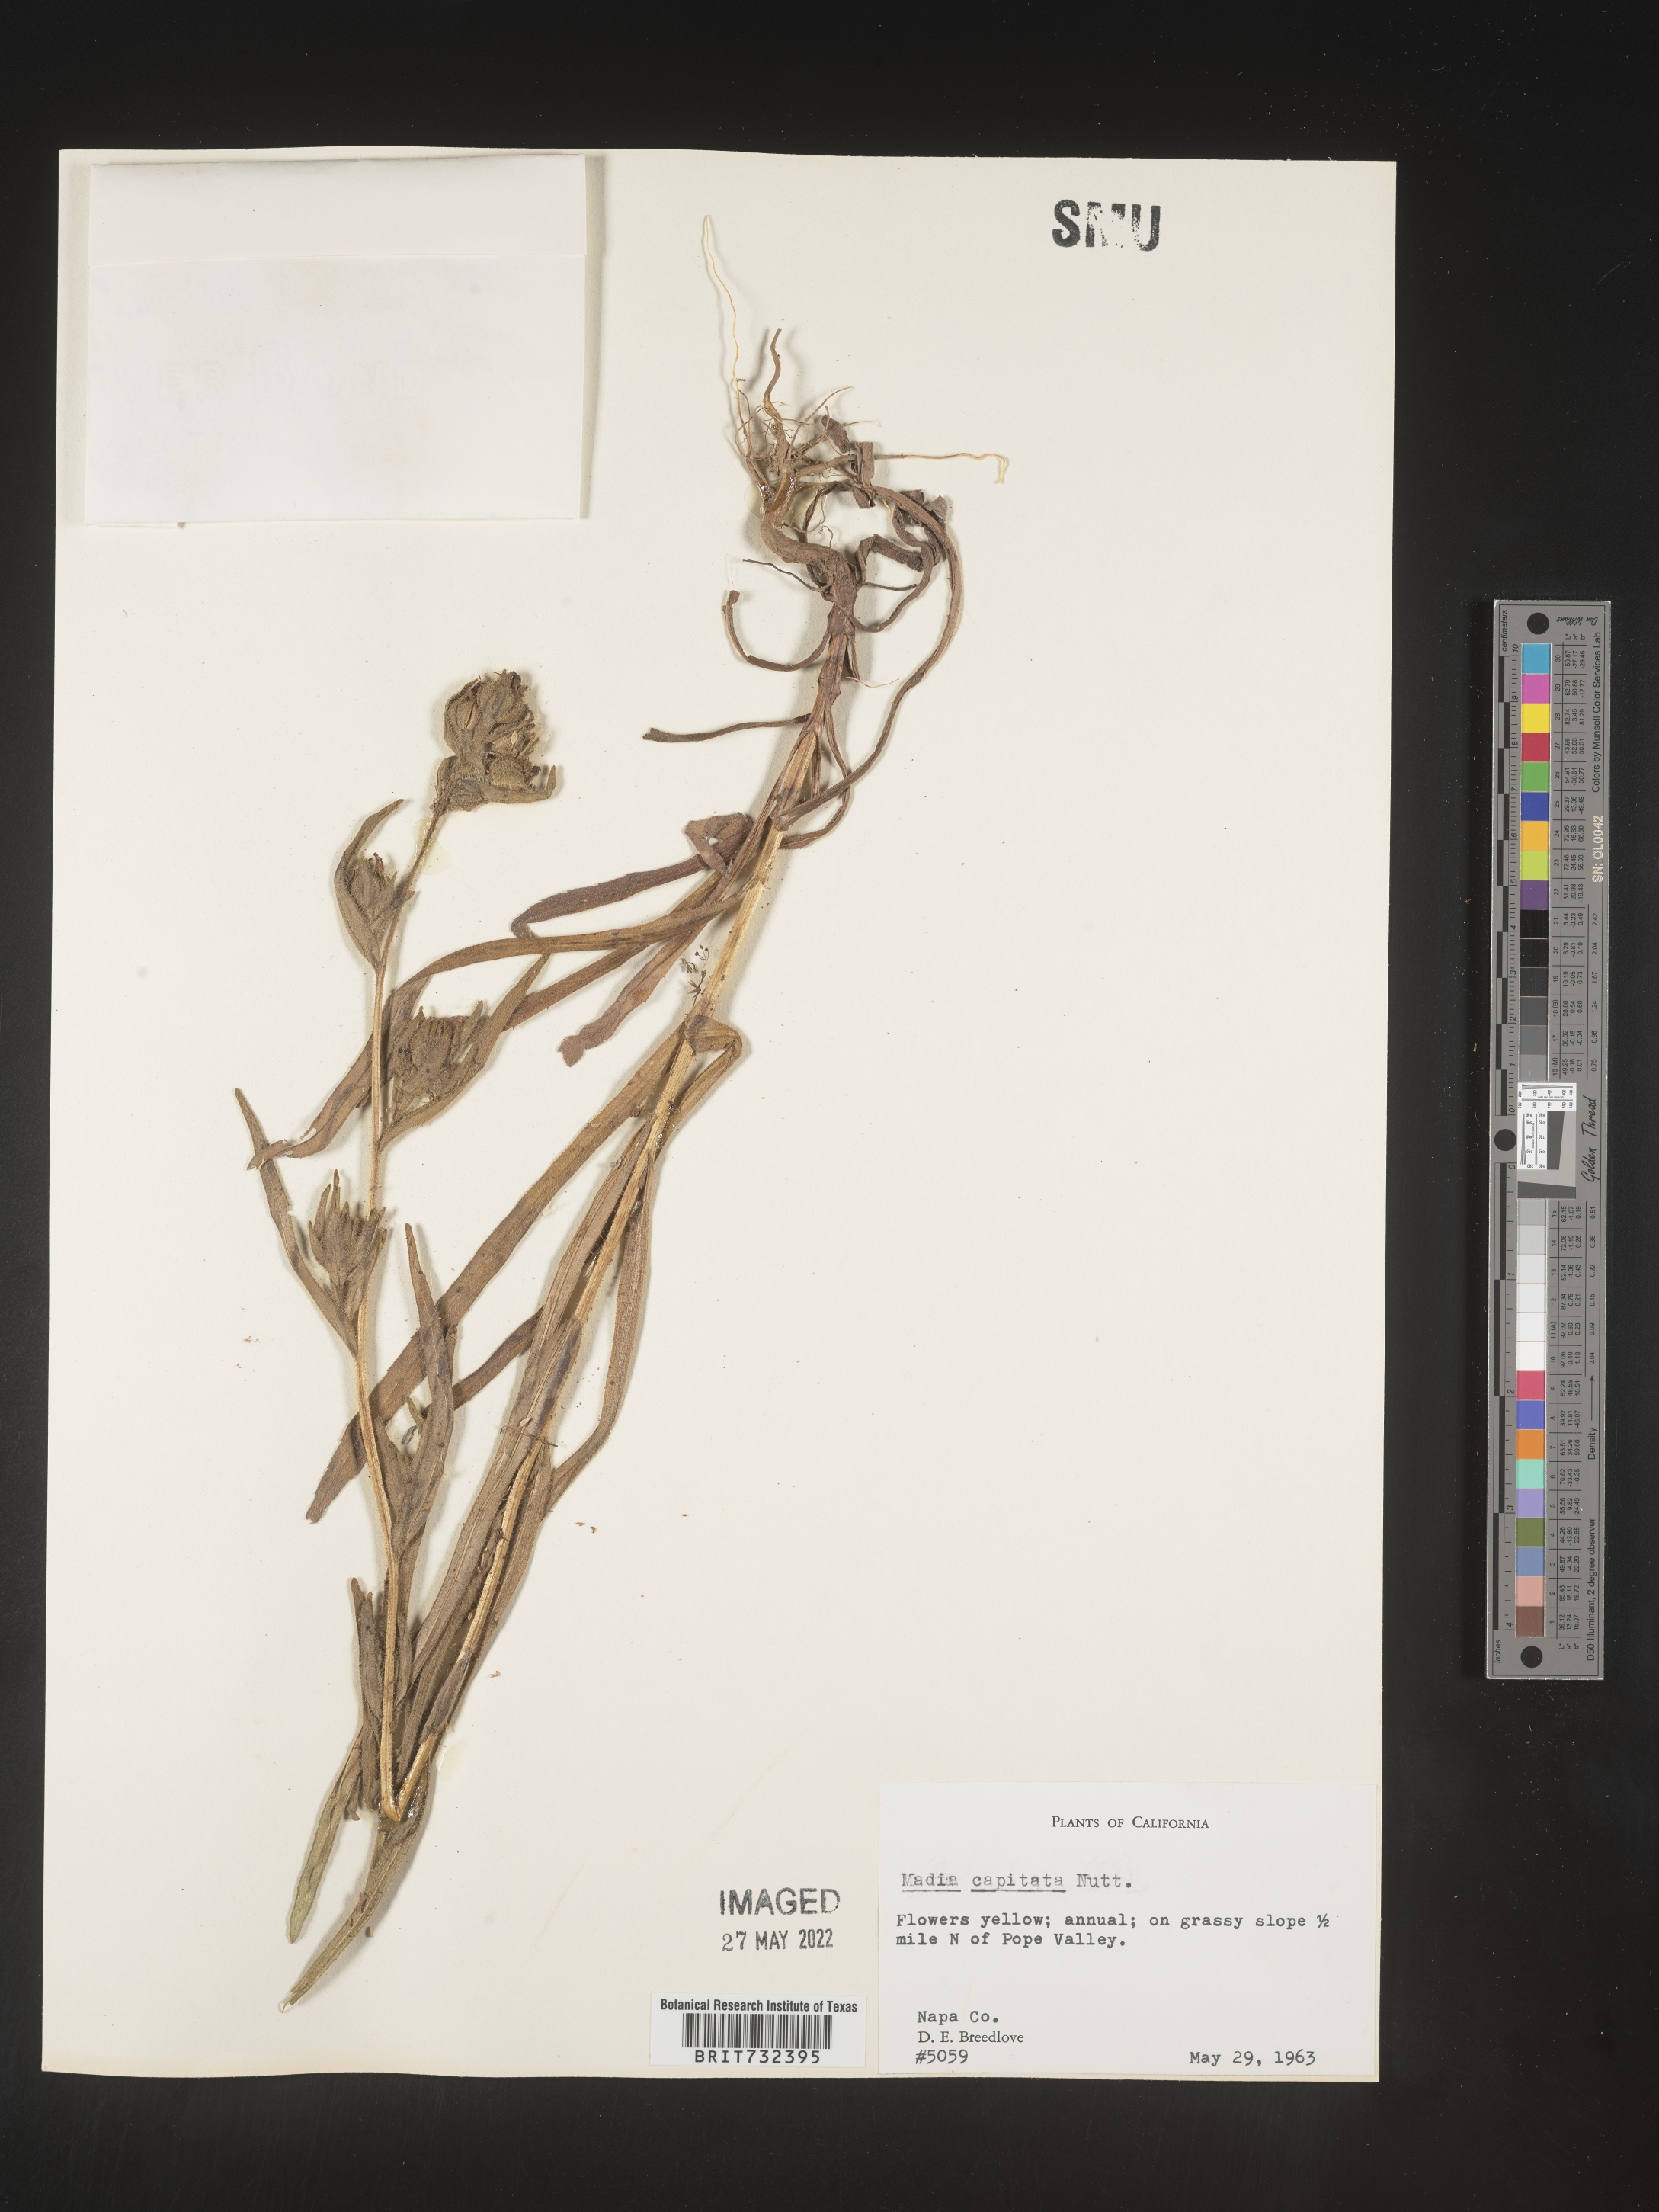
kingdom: Plantae
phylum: Tracheophyta
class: Magnoliopsida
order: Asterales
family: Asteraceae
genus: Madia
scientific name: Madia sativa
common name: Coast tarweed
